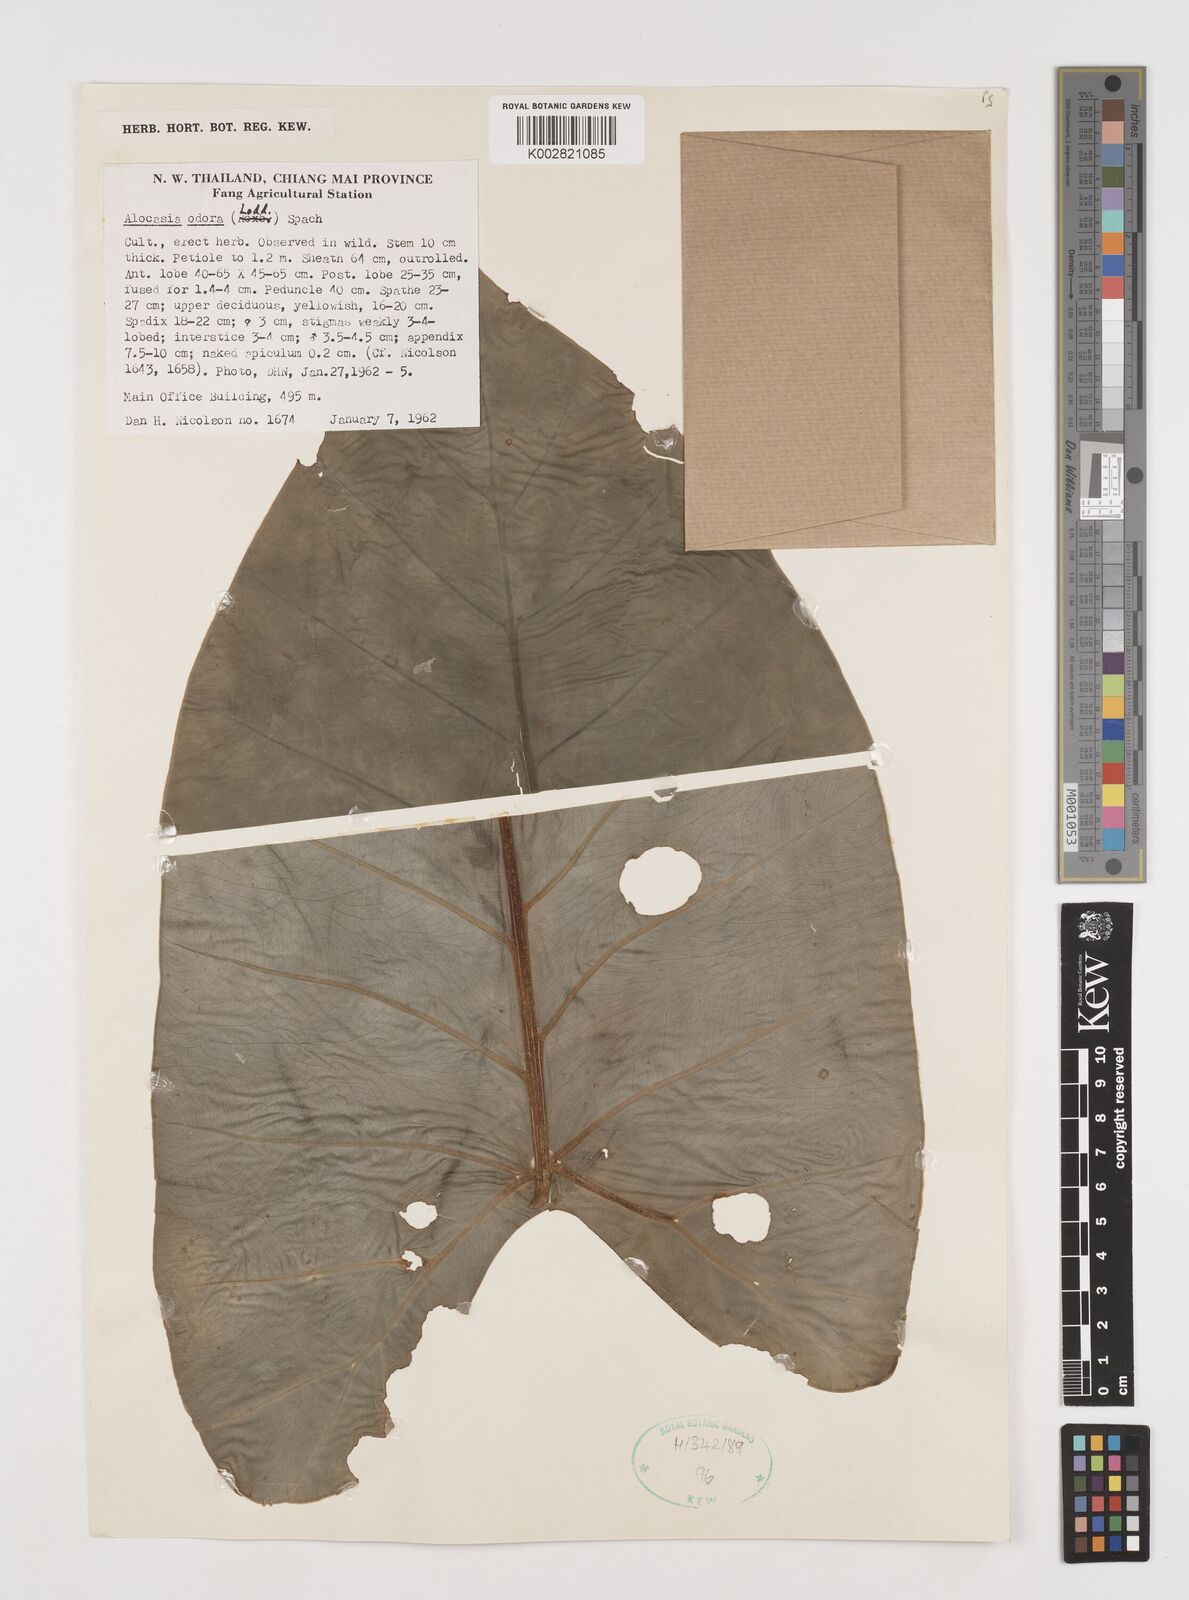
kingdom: Plantae
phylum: Tracheophyta
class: Liliopsida
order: Alismatales
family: Araceae
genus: Alocasia
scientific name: Alocasia
